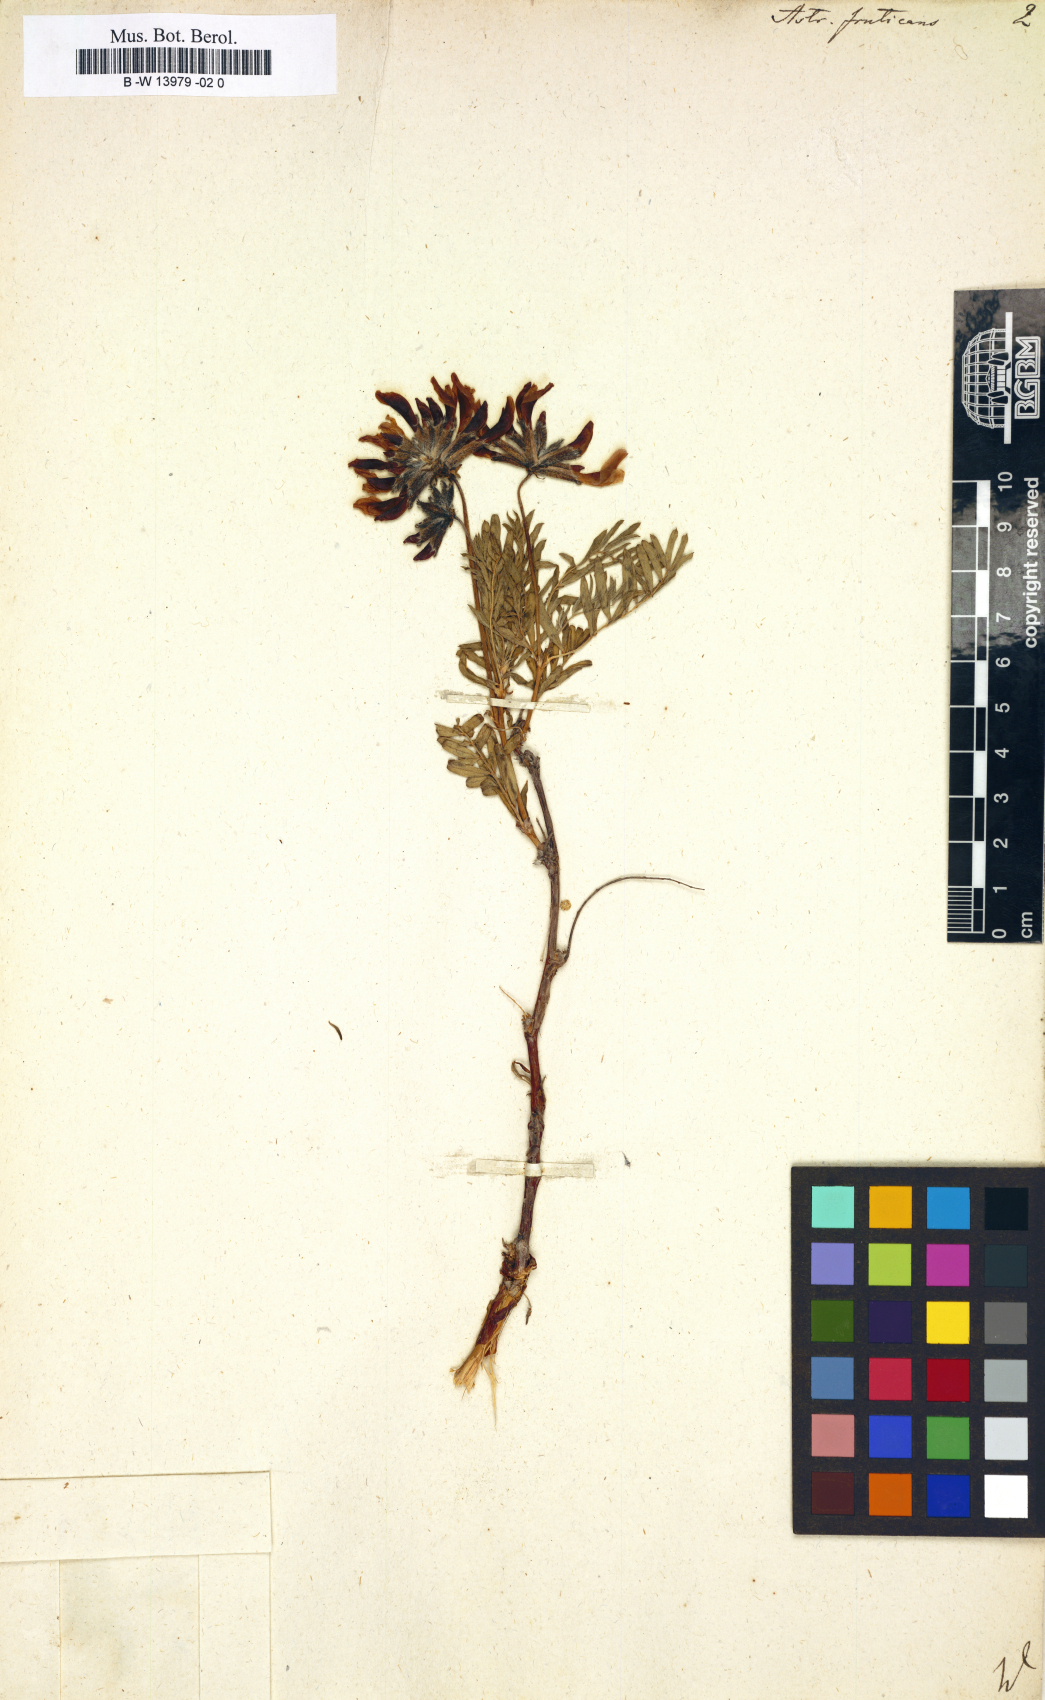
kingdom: Plantae
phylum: Tracheophyta
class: Magnoliopsida
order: Fabales
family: Fabaceae
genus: Astragalus
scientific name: Astragalus
